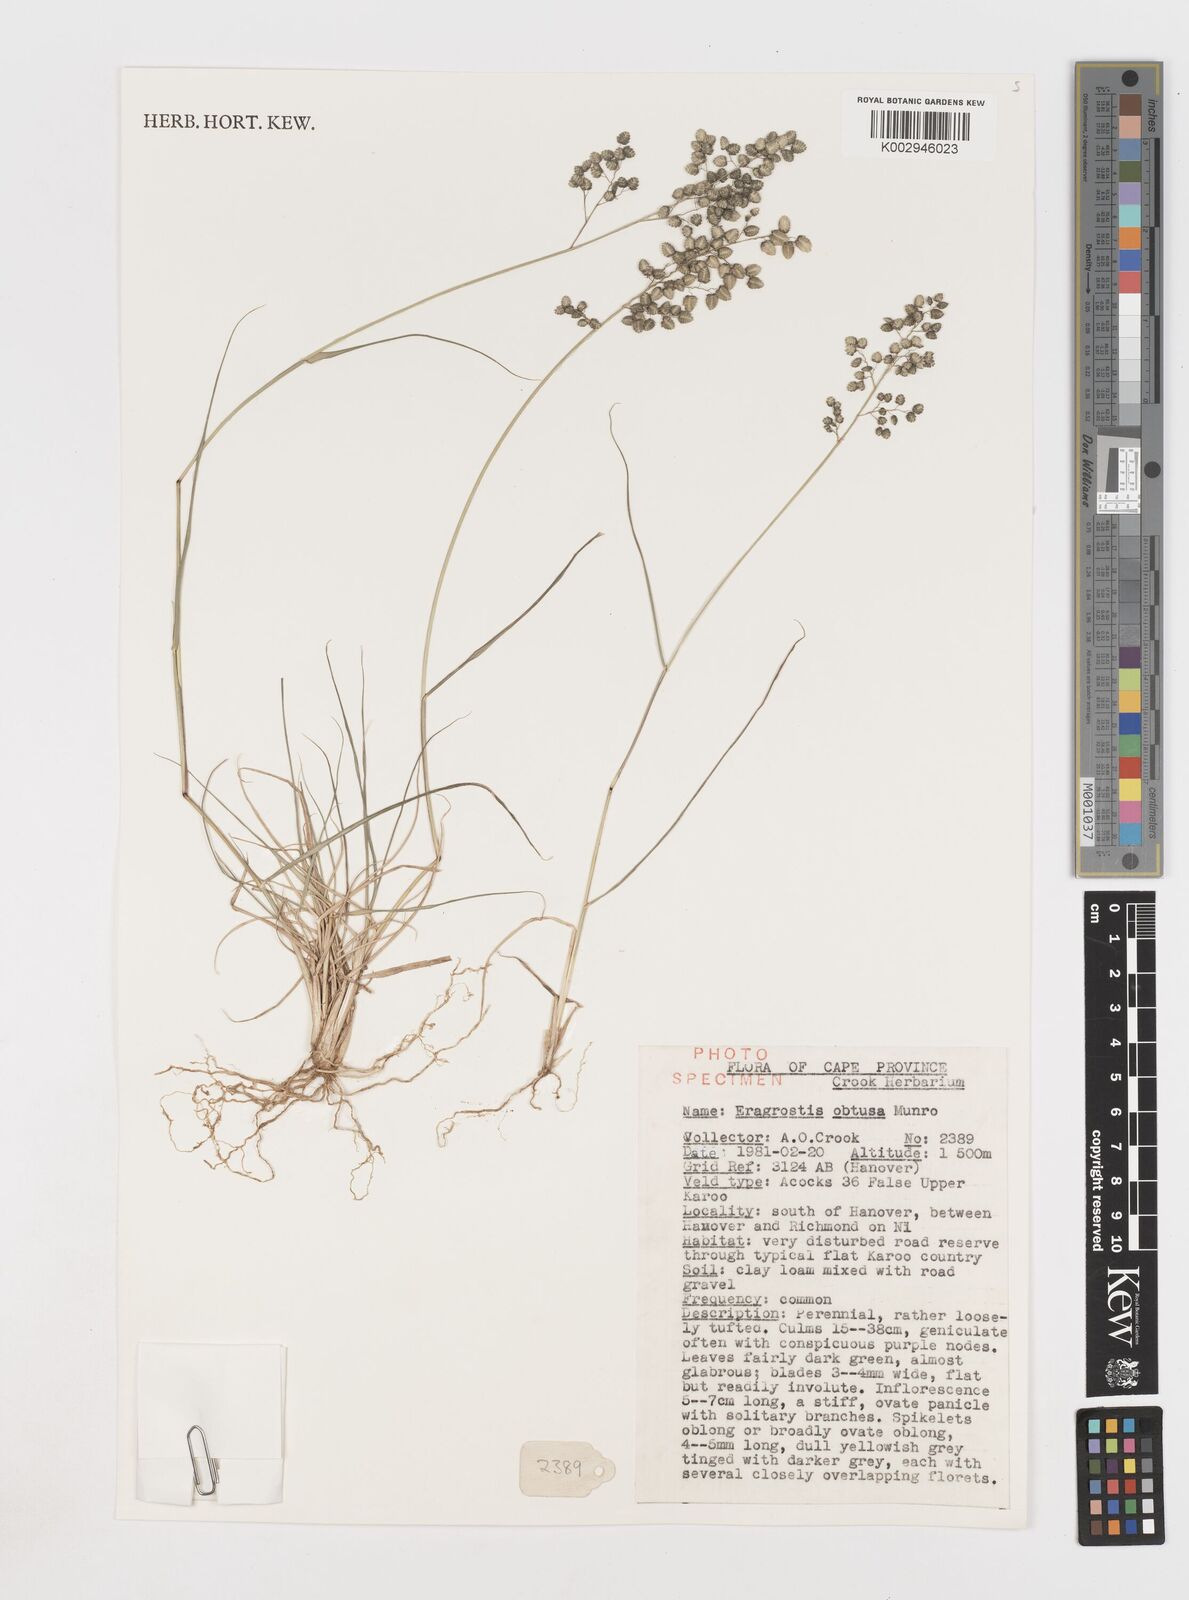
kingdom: Plantae
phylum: Tracheophyta
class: Liliopsida
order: Poales
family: Poaceae
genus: Eragrostis
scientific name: Eragrostis obtusa
